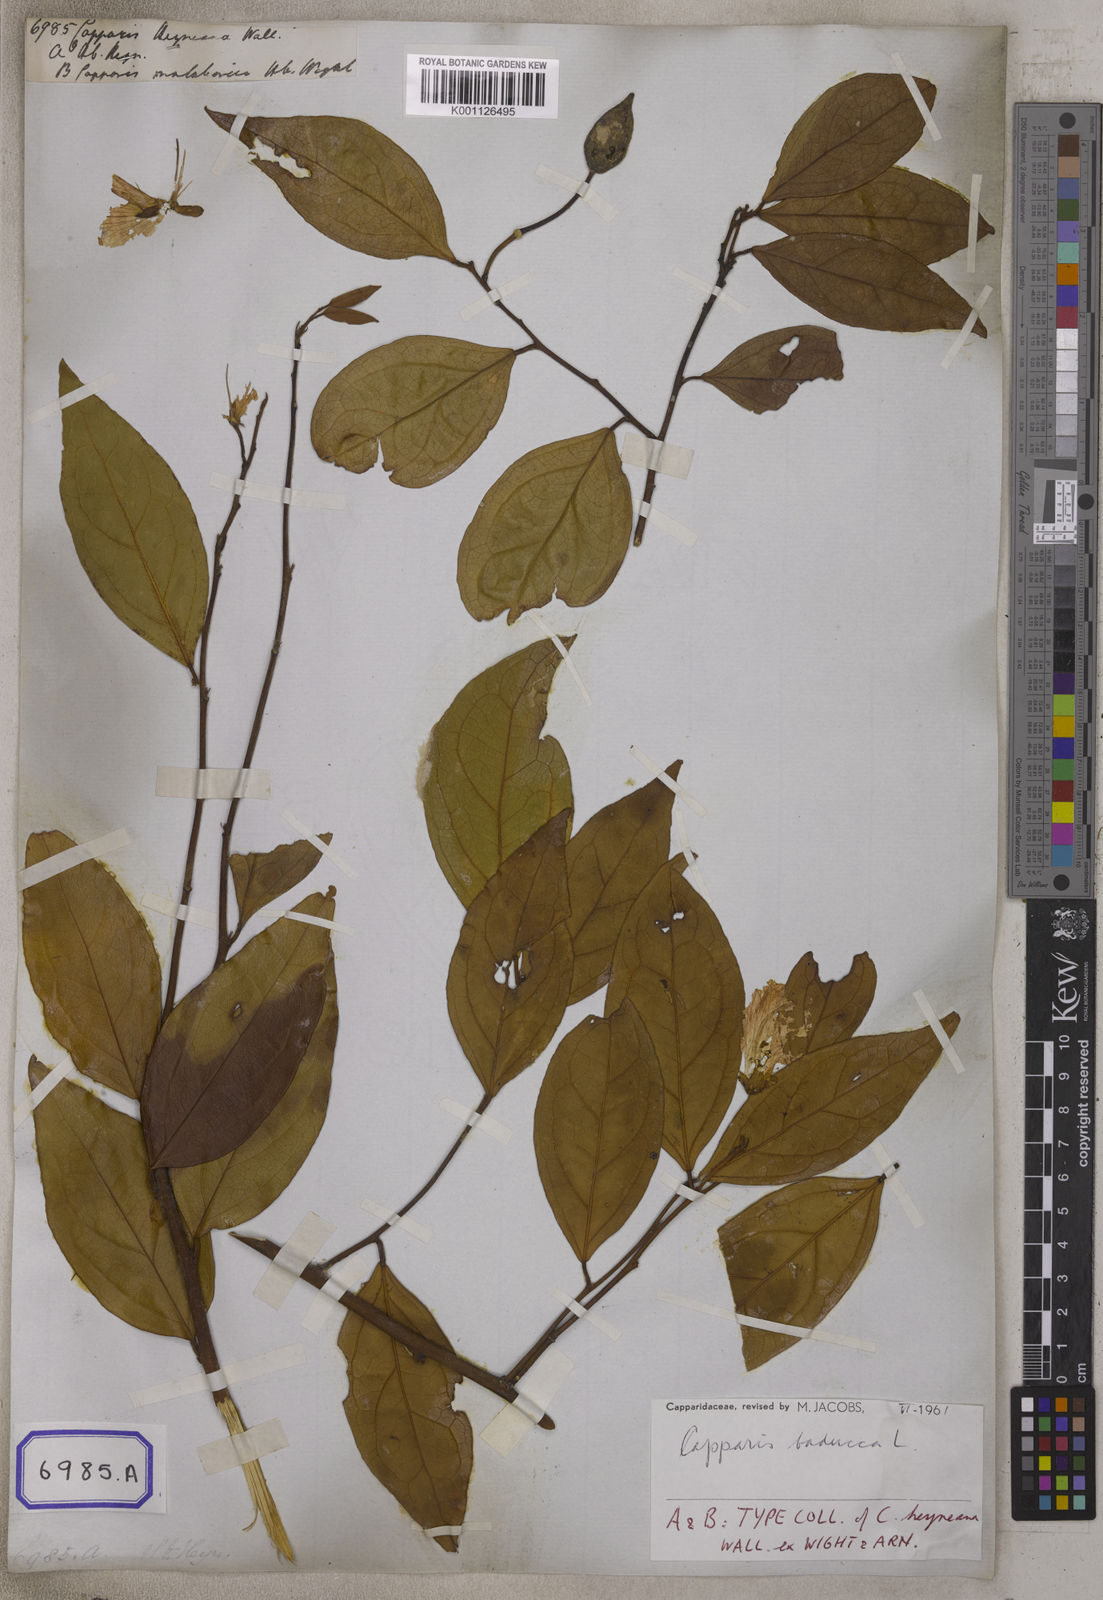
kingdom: Plantae
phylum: Tracheophyta
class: Magnoliopsida
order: Brassicales
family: Capparaceae
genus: Capparis
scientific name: Capparis
